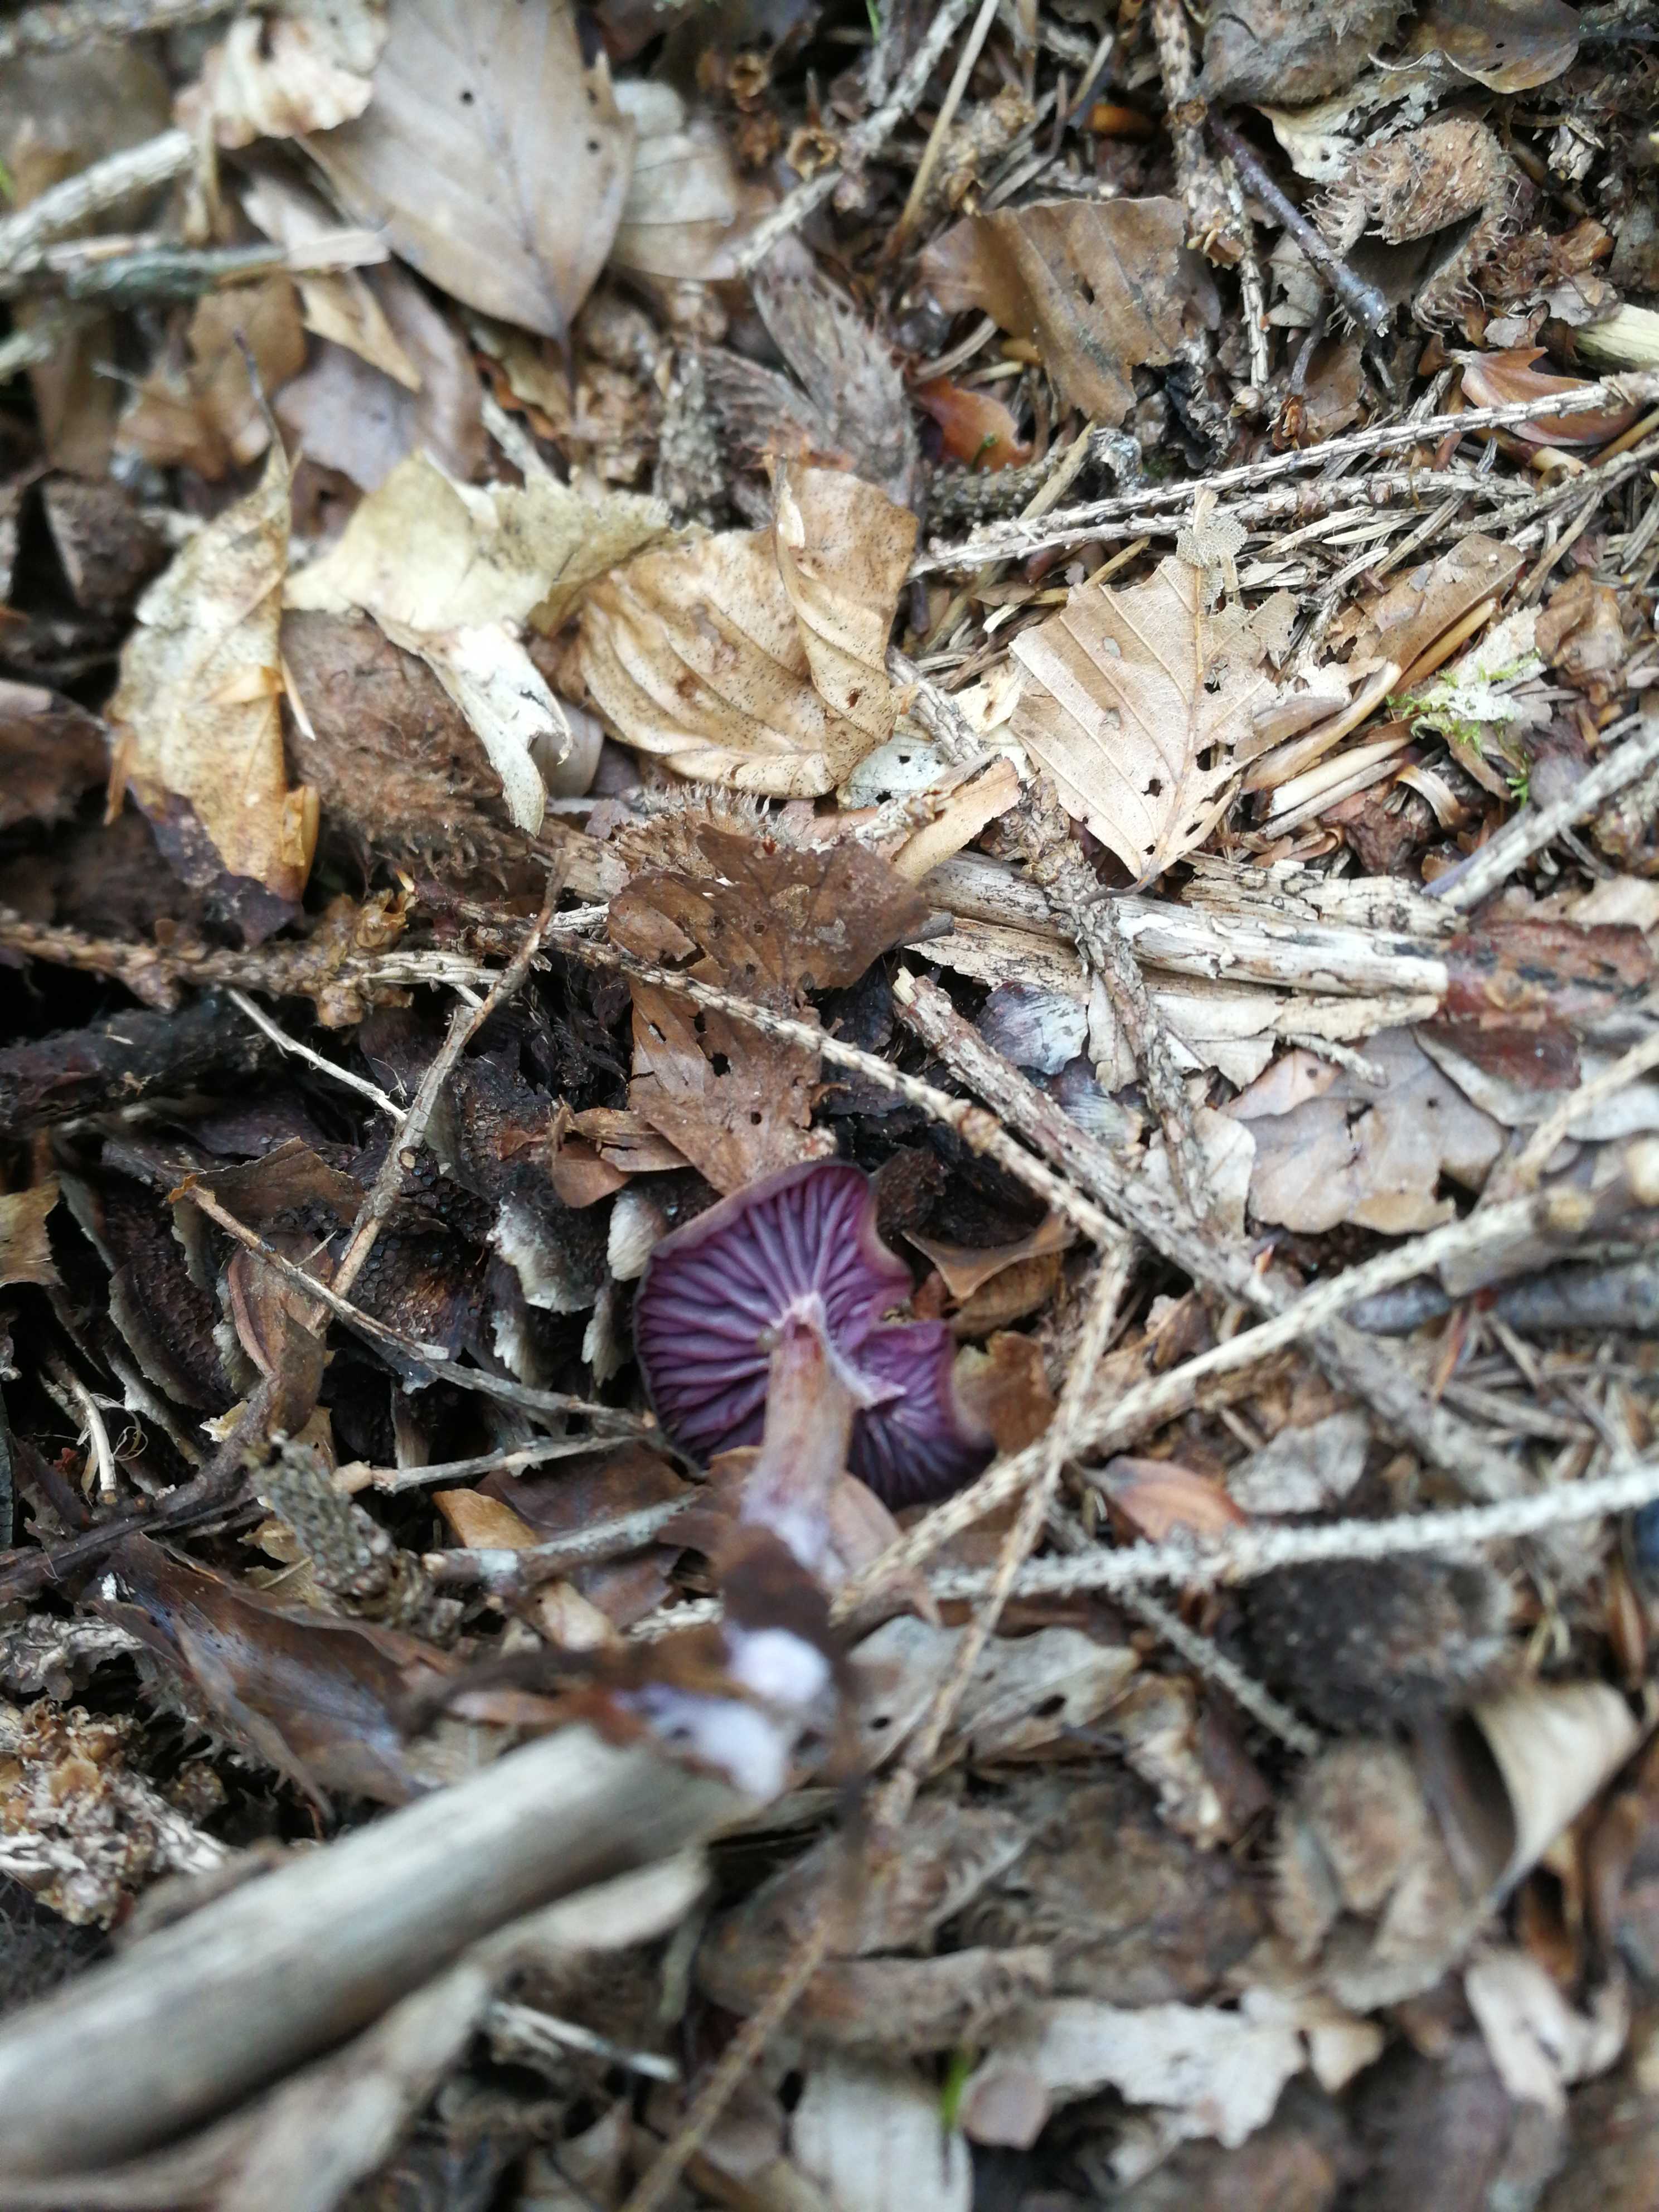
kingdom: Fungi
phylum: Basidiomycota
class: Agaricomycetes
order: Agaricales
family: Hydnangiaceae
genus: Laccaria
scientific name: Laccaria amethystina
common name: violet ametysthat
